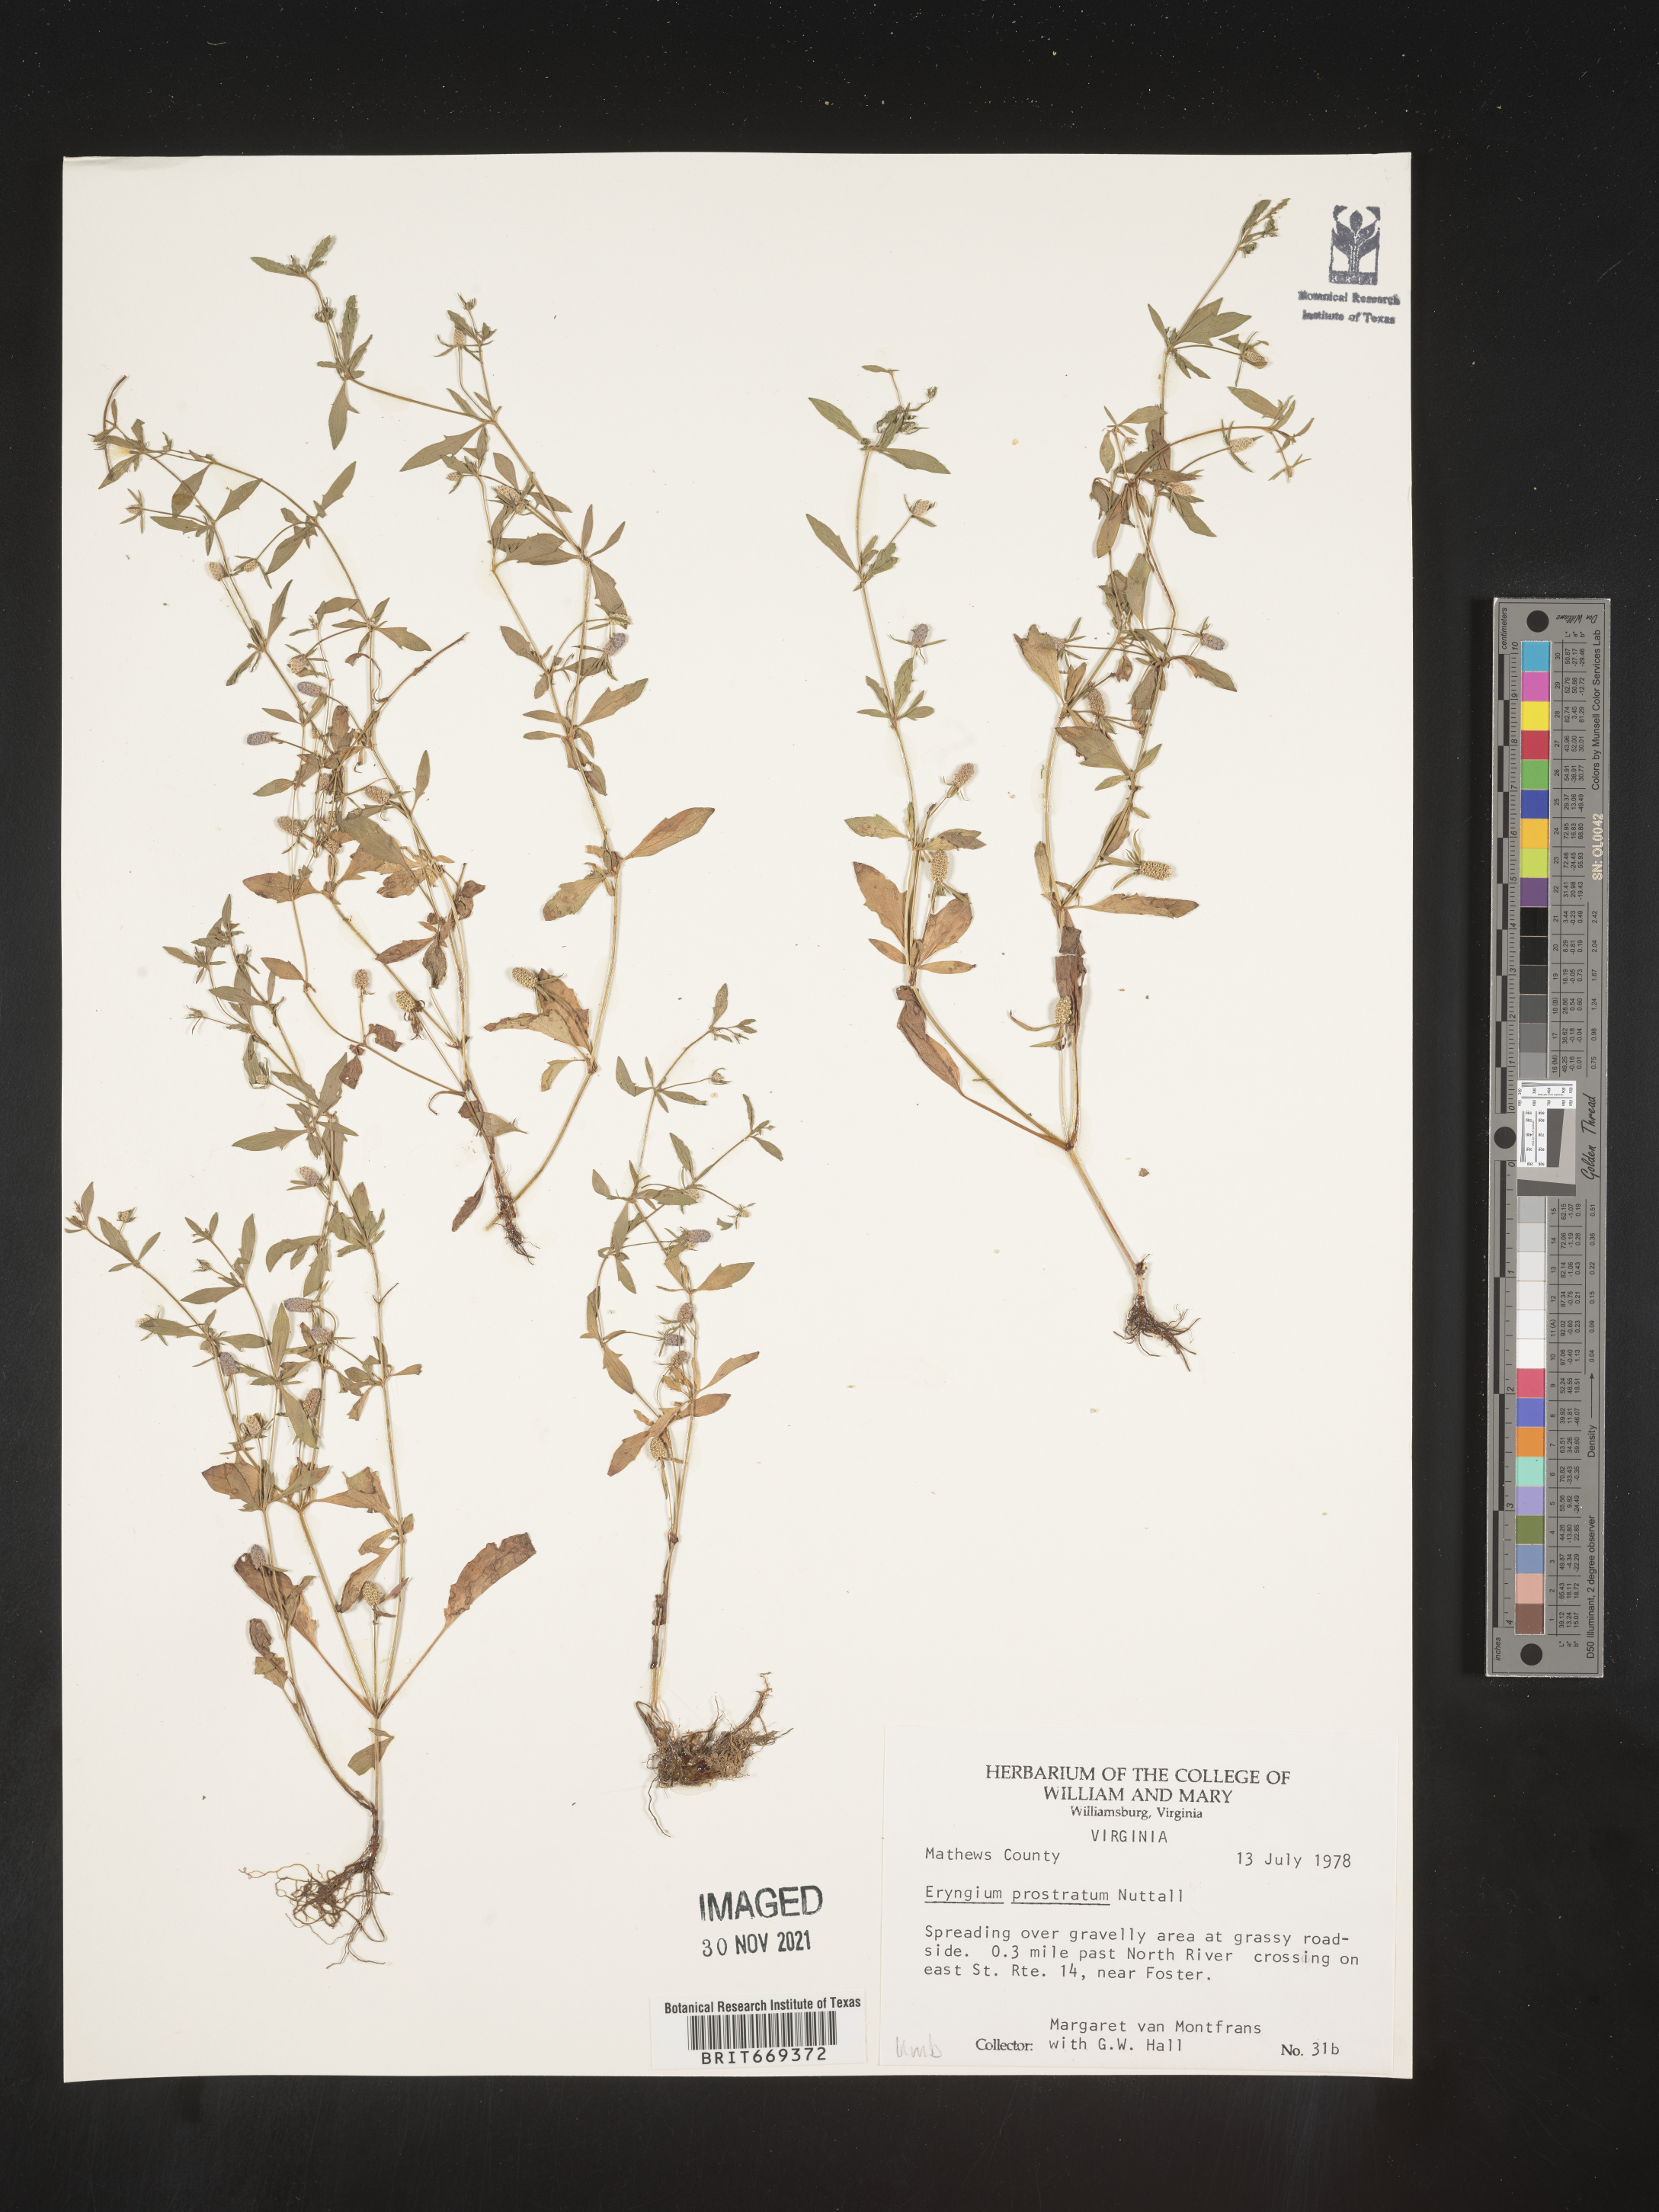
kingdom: Plantae
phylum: Tracheophyta
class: Magnoliopsida
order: Apiales
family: Apiaceae
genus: Eryngium
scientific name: Eryngium prostratum
